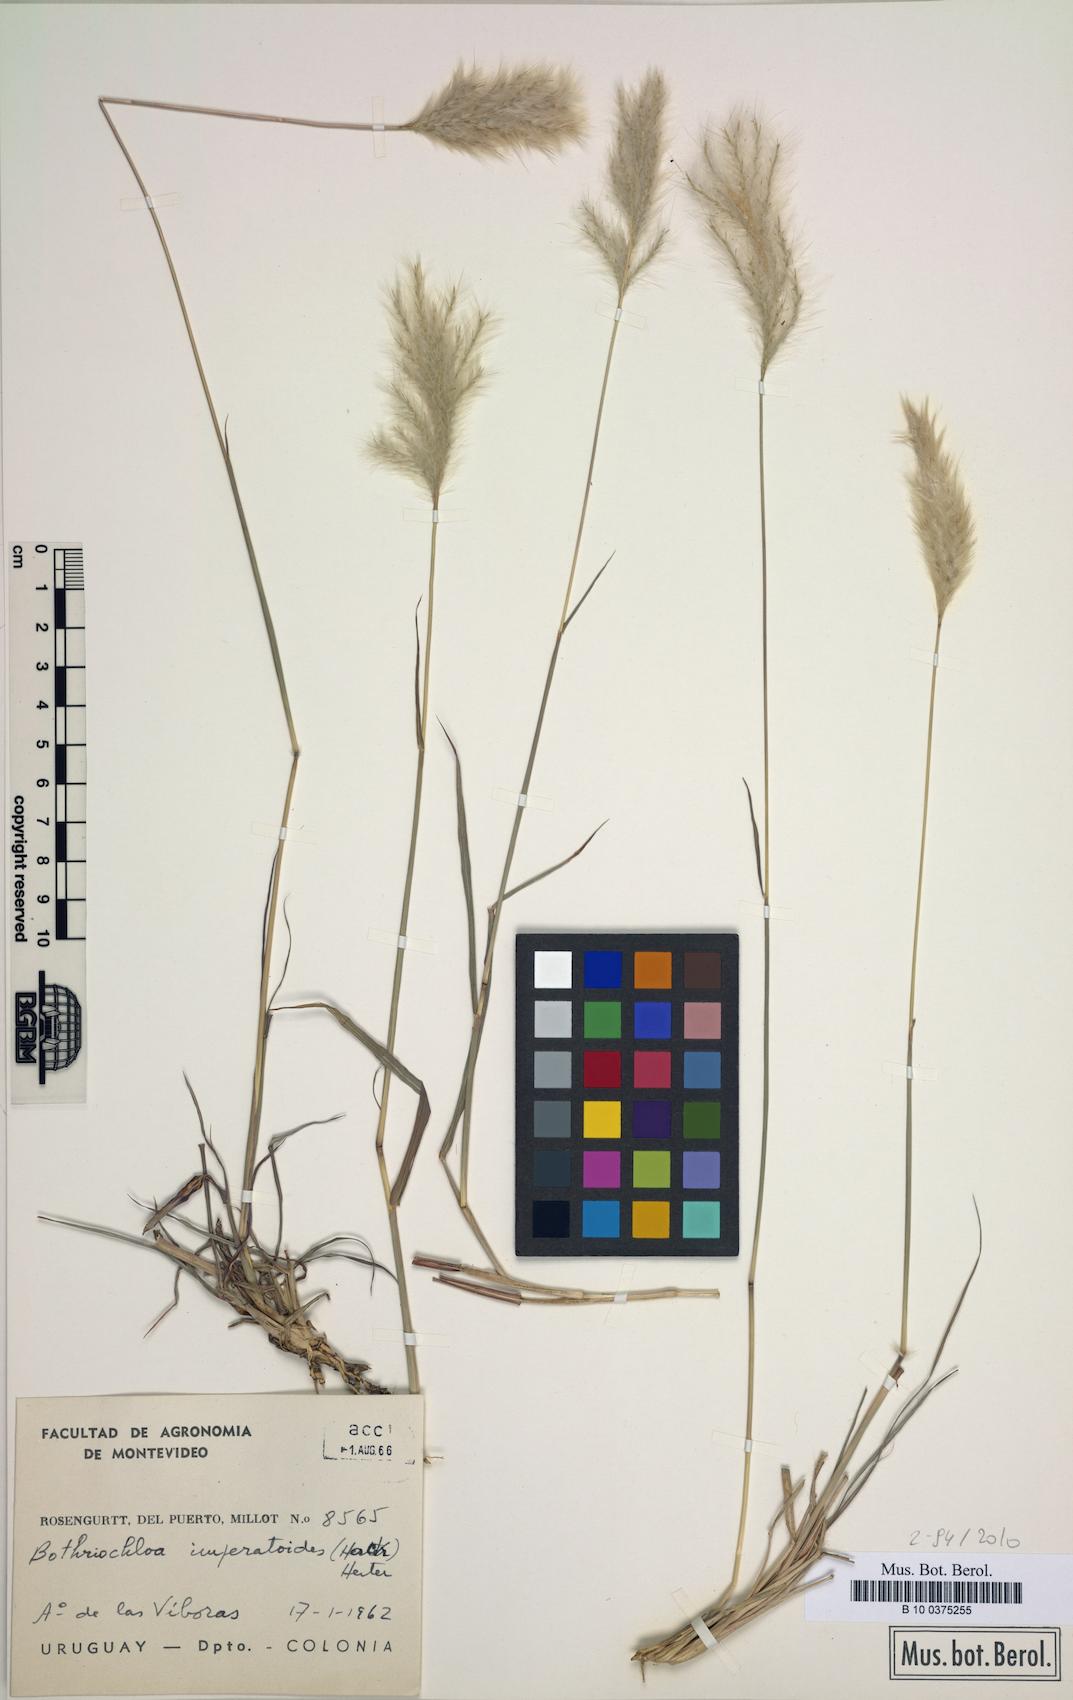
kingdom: Plantae
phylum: Tracheophyta
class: Liliopsida
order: Poales
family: Poaceae
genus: Bothriochloa
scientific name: Bothriochloa imperatoides
